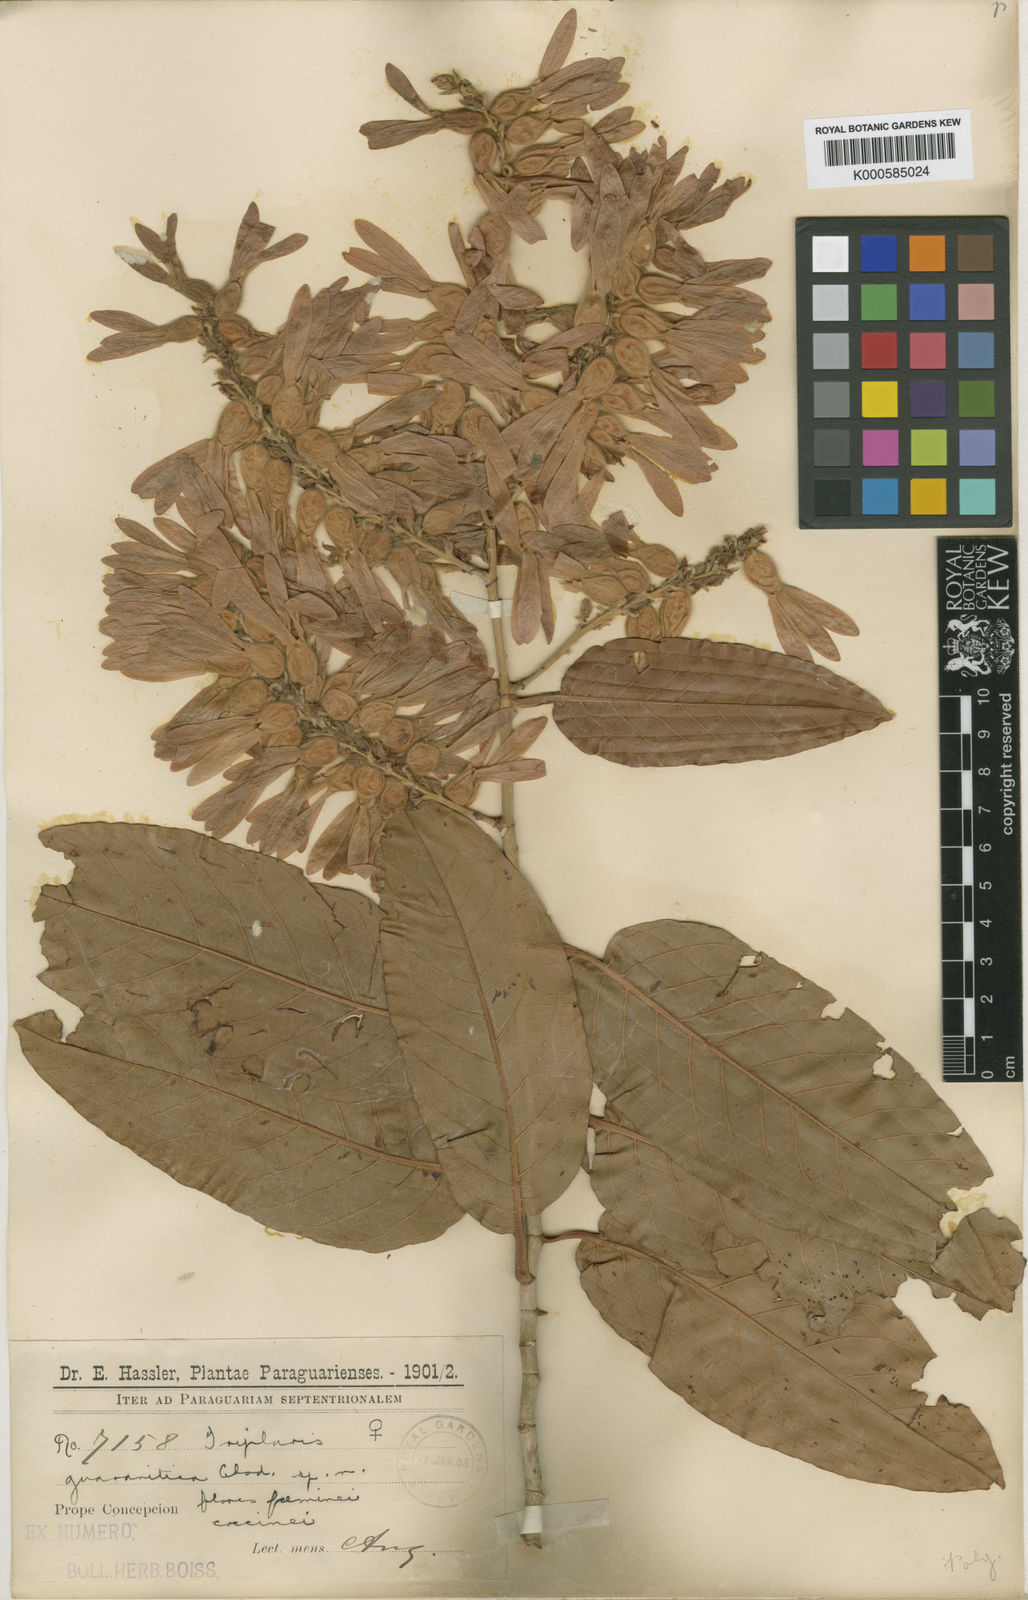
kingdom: Plantae
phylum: Tracheophyta
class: Magnoliopsida
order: Caryophyllales
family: Polygonaceae
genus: Triplaris
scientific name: Triplaris gardneriana
